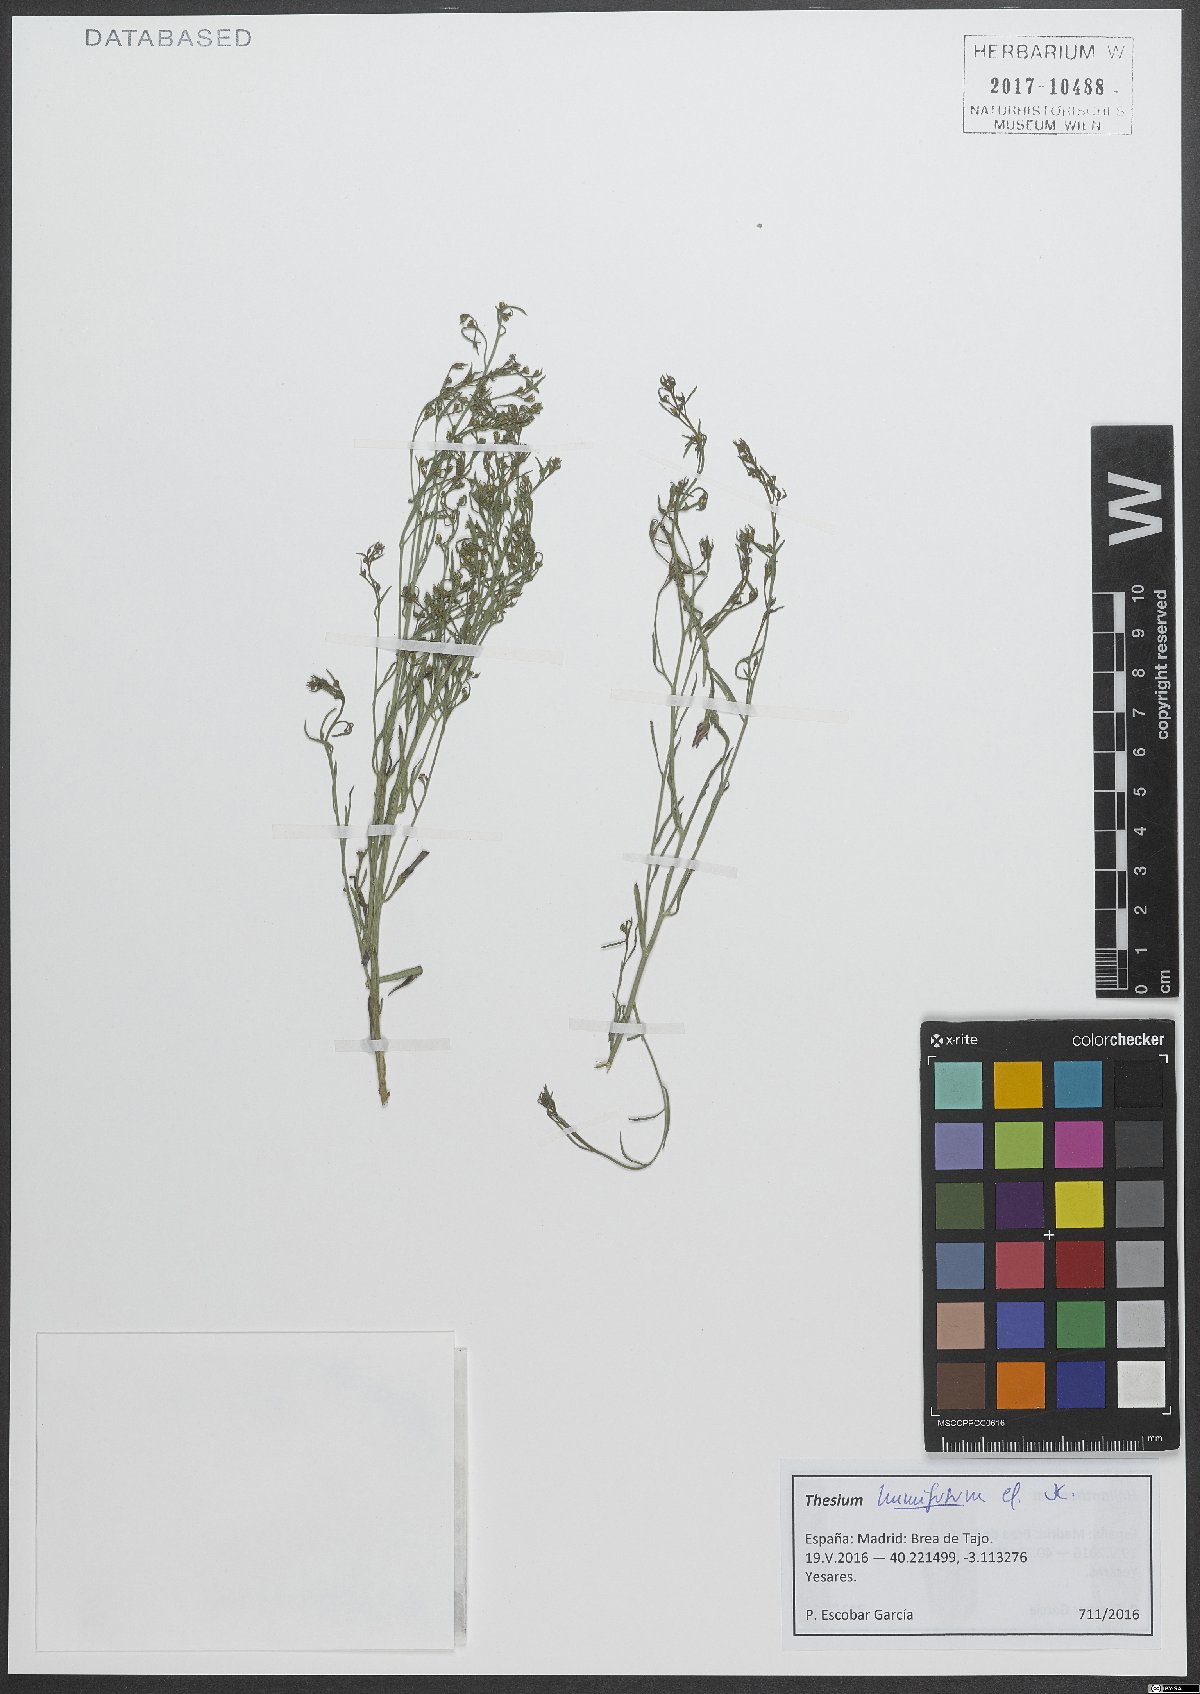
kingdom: Plantae
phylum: Tracheophyta
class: Magnoliopsida
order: Santalales
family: Thesiaceae
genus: Thesium
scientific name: Thesium humifusum
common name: Bastard-toadflax
